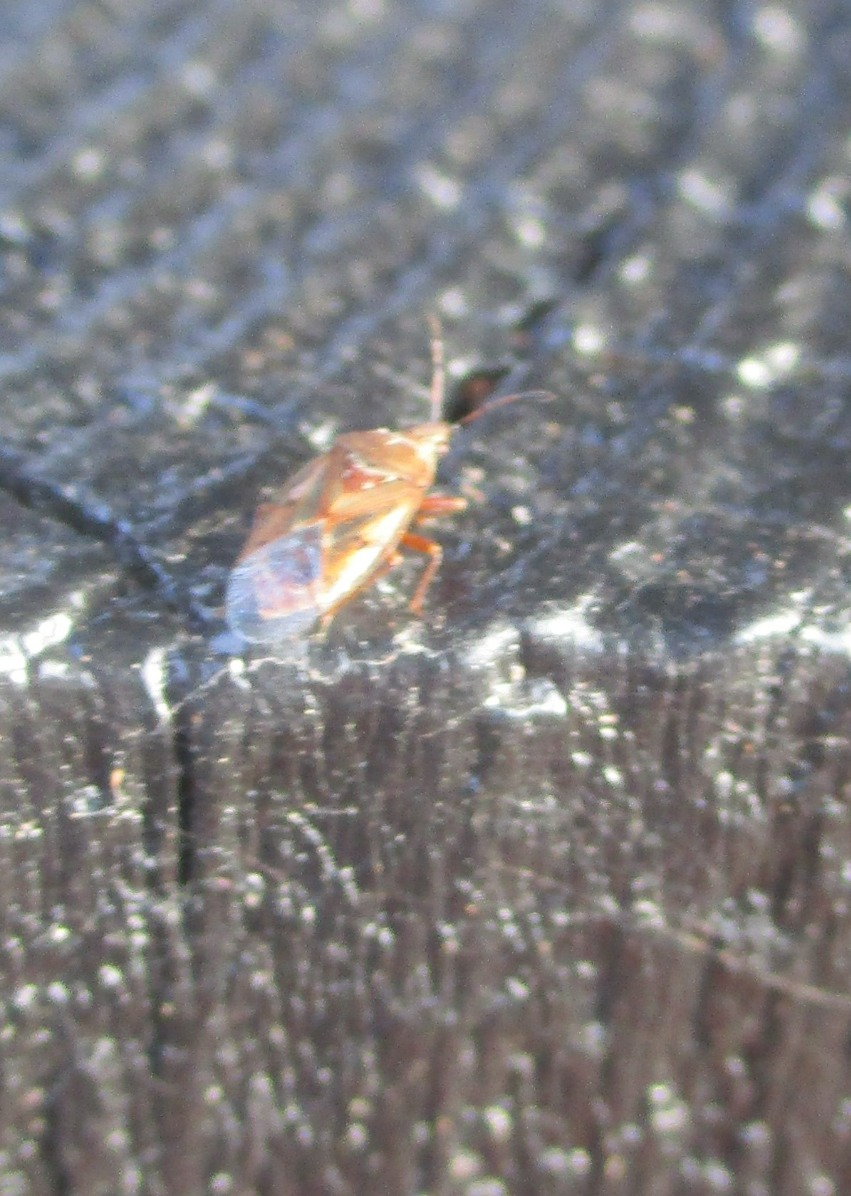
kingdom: Animalia
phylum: Arthropoda
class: Insecta
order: Hemiptera
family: Lygaeidae
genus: Kleidocerys
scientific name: Kleidocerys resedae
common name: Birkefrøtæge
